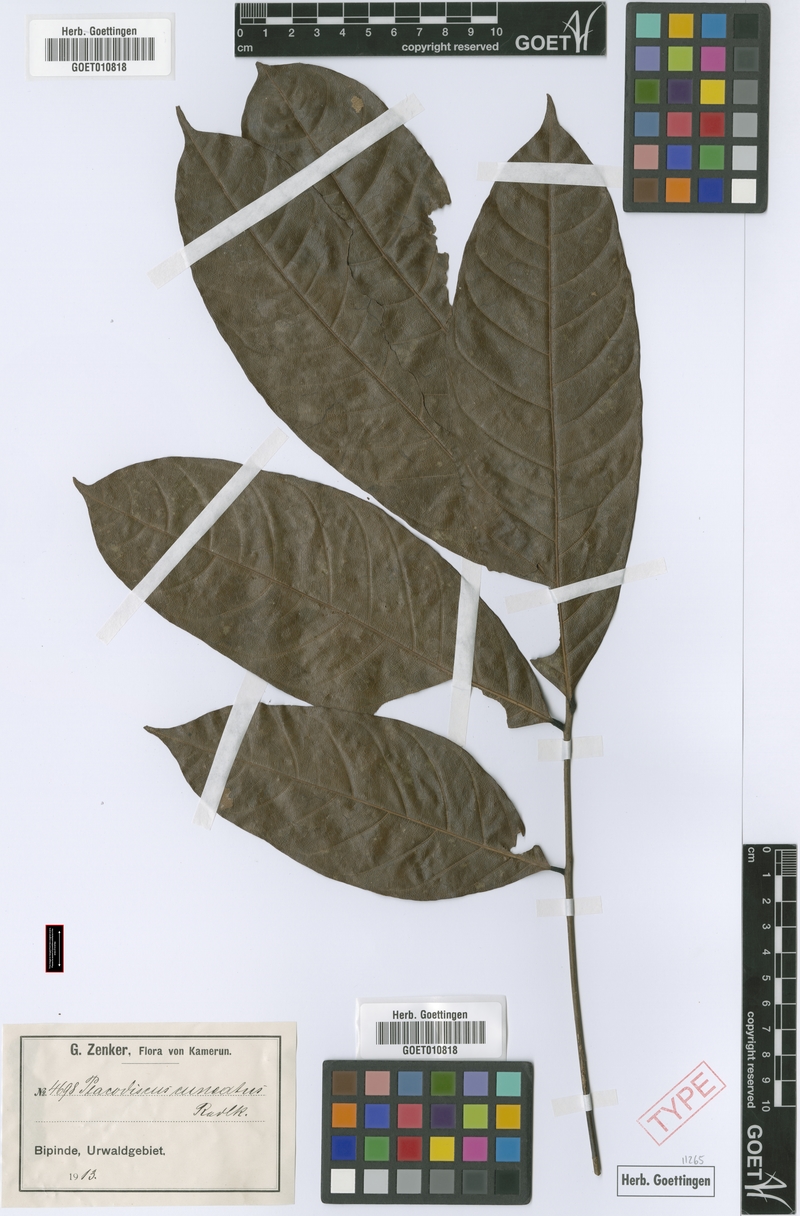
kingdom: Plantae
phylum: Tracheophyta
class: Magnoliopsida
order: Sapindales
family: Sapindaceae
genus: Placodiscus
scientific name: Placodiscus angustifolius
